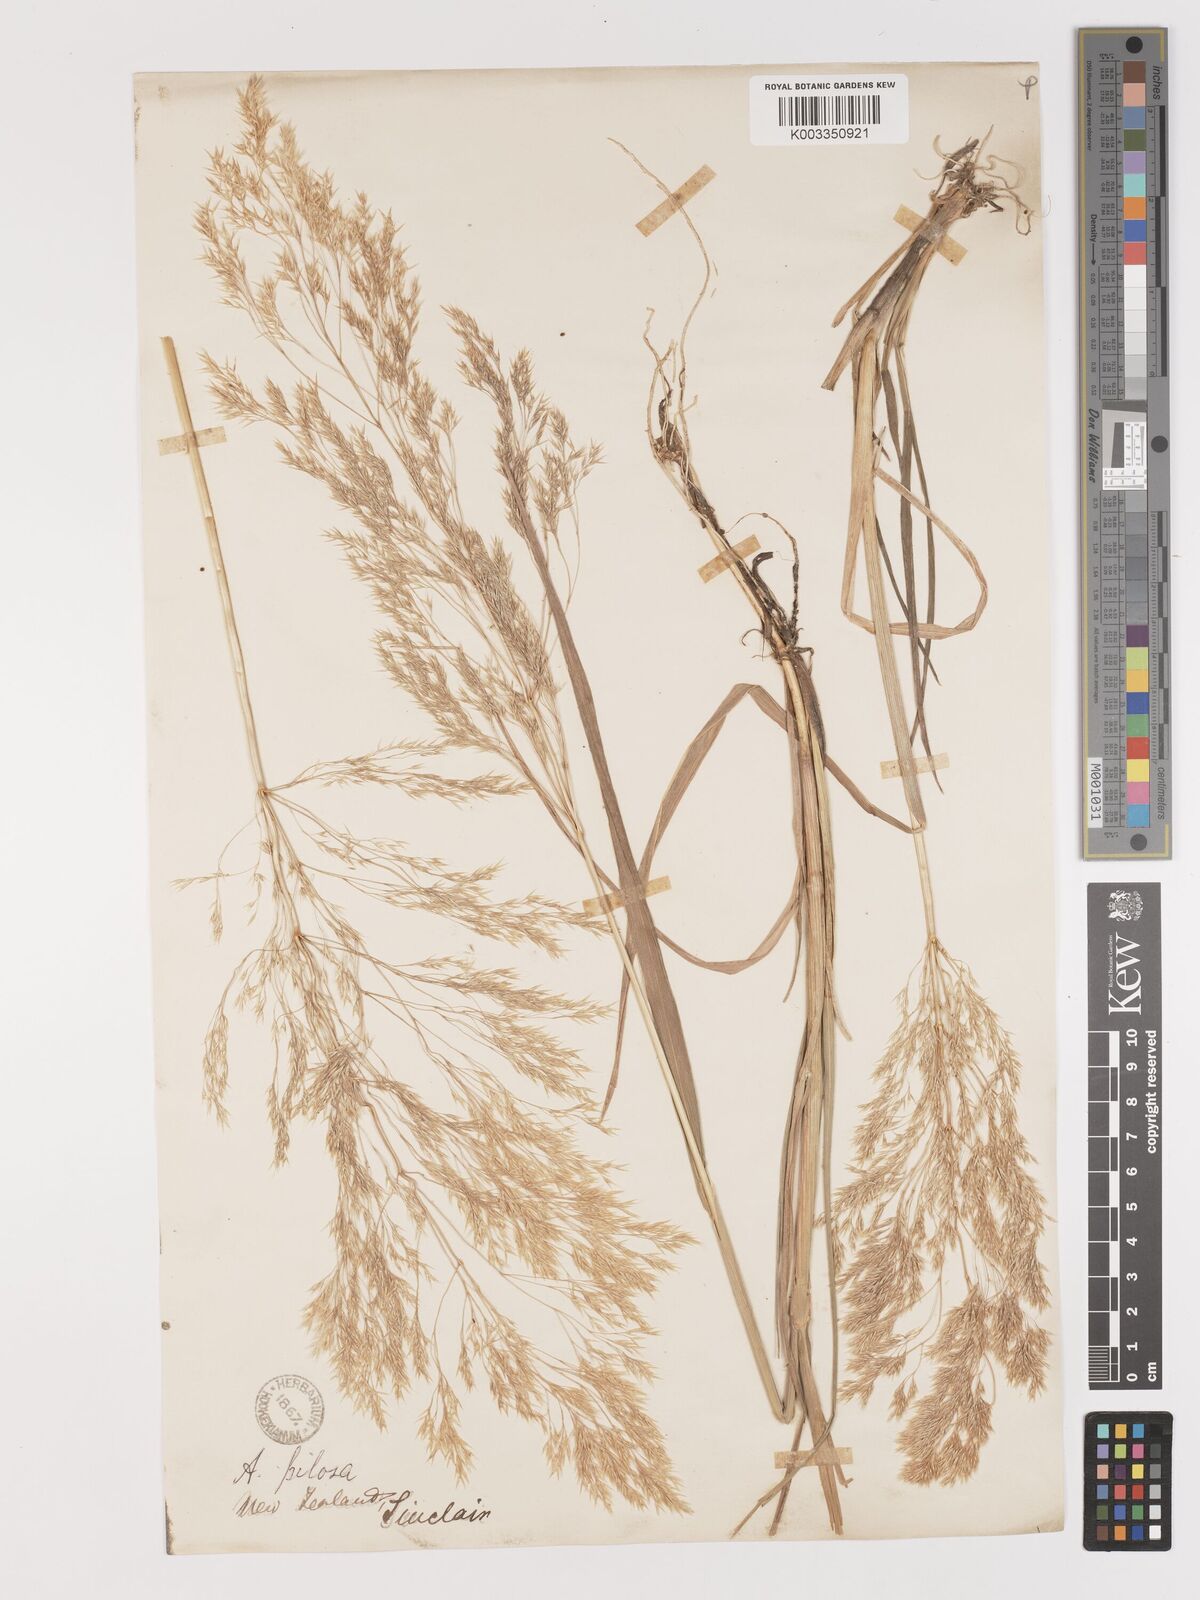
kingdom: Plantae
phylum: Tracheophyta
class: Liliopsida
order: Poales
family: Poaceae
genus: Lachnagrostis
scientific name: Lachnagrostis pilosa
